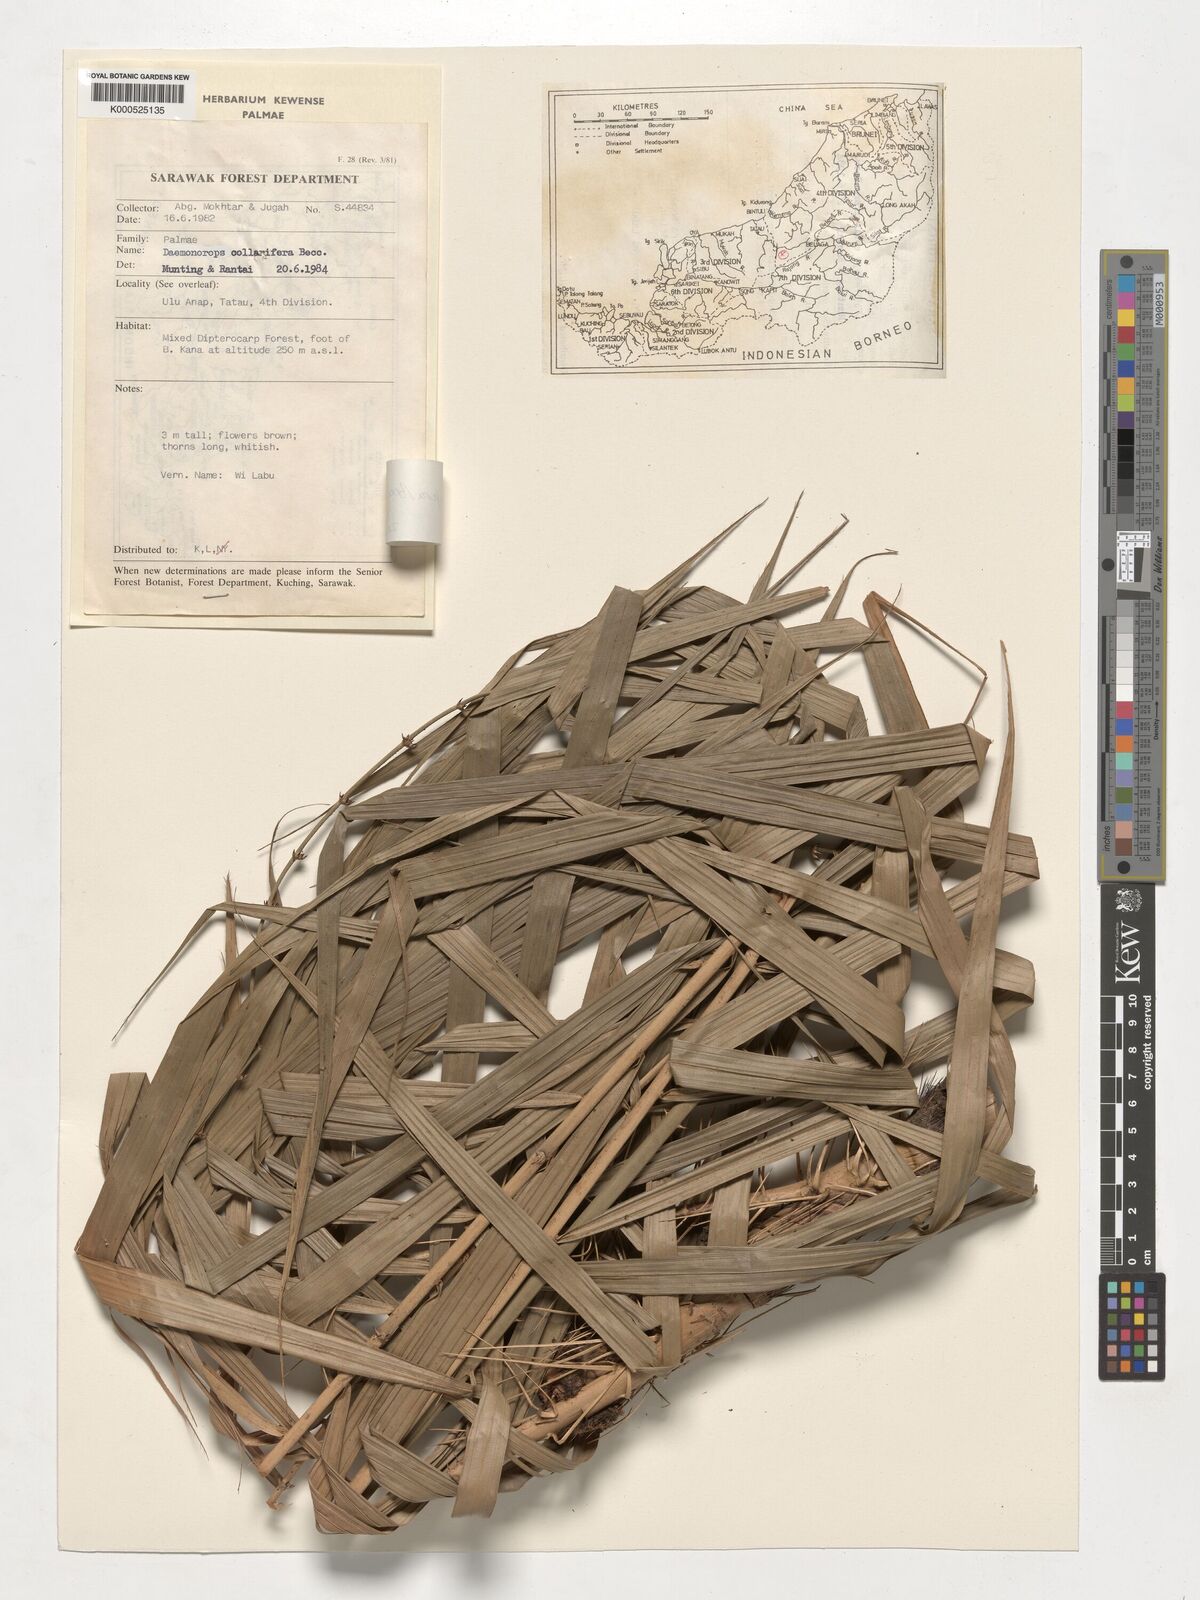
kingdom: Plantae
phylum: Tracheophyta
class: Liliopsida
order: Arecales
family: Arecaceae
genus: Calamus
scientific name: Calamus geniculatus
